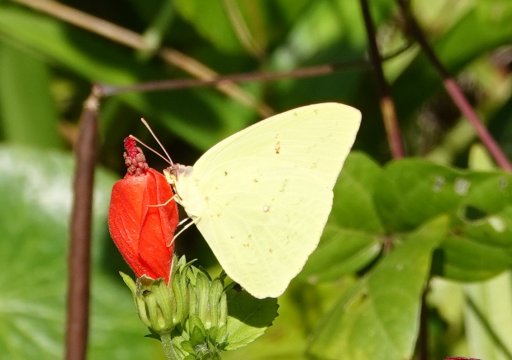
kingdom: Animalia
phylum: Arthropoda
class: Insecta
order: Lepidoptera
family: Pieridae
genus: Phoebis
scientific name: Phoebis sennae
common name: Cloudless Sulphur
